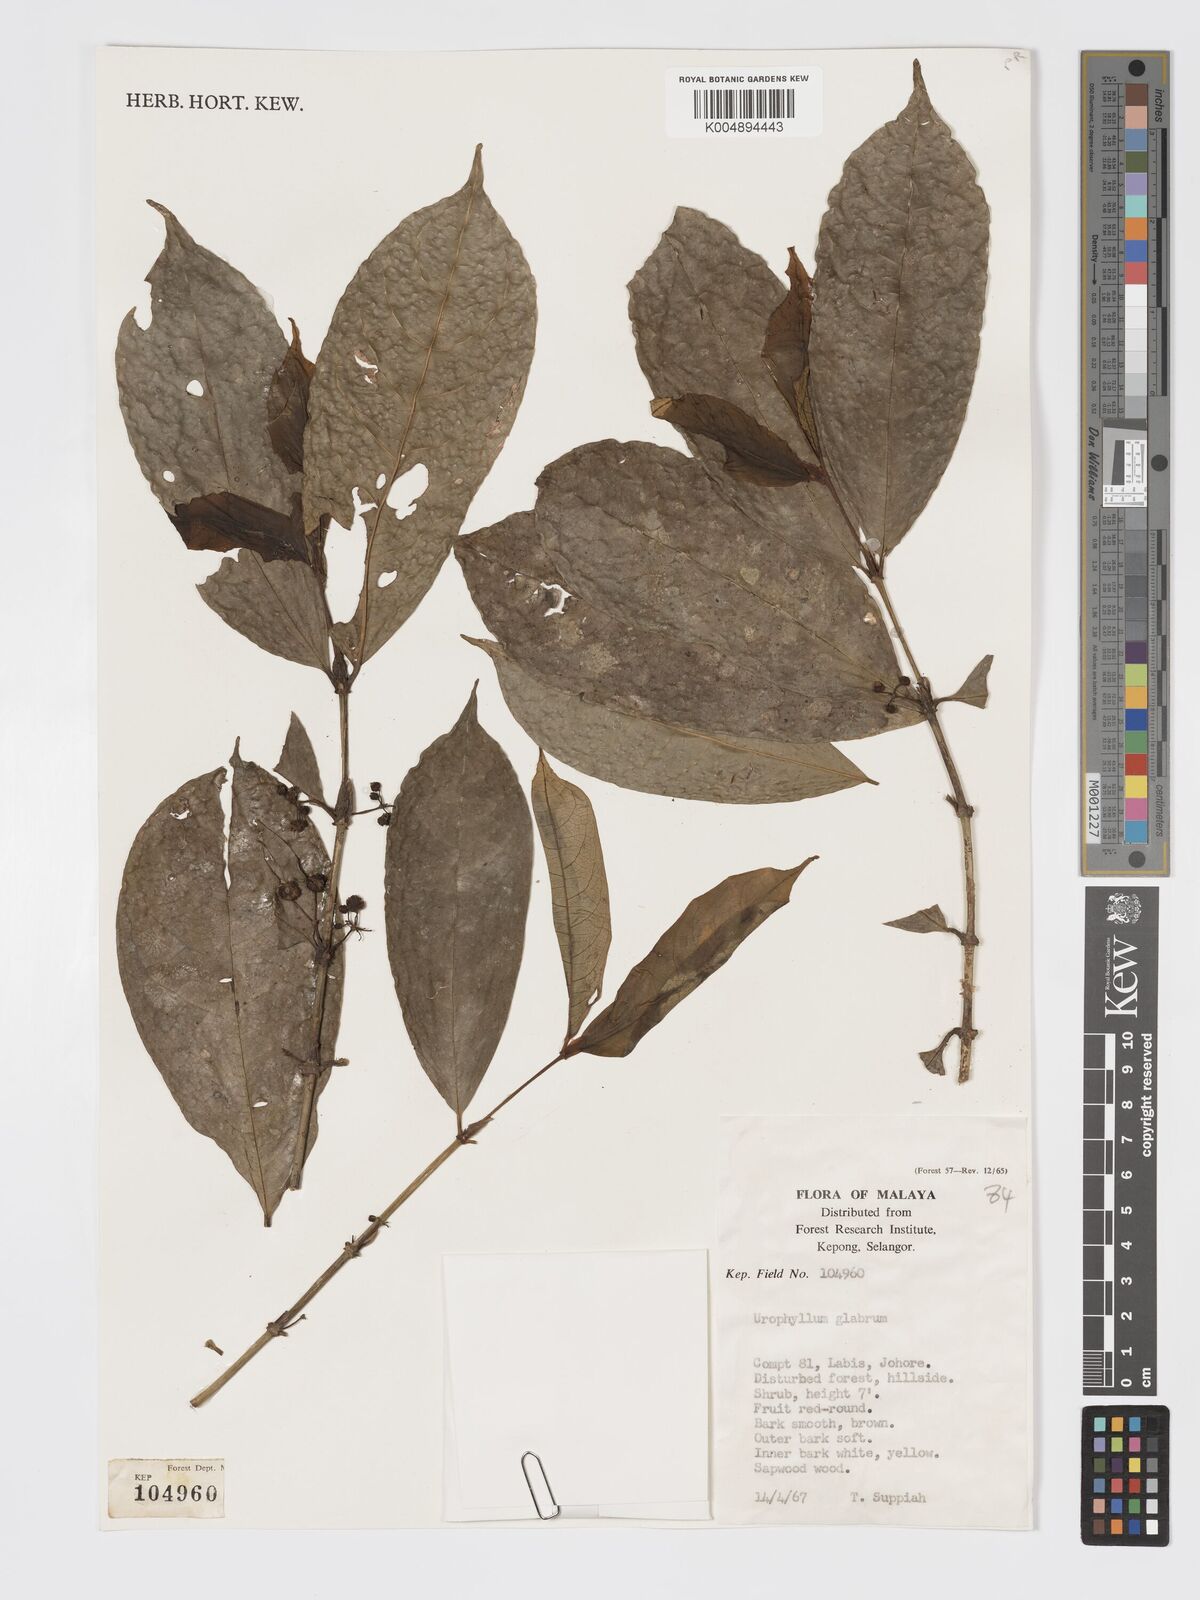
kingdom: Plantae
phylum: Tracheophyta
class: Magnoliopsida
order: Gentianales
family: Rubiaceae
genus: Urophyllum
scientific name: Urophyllum griffithianum
